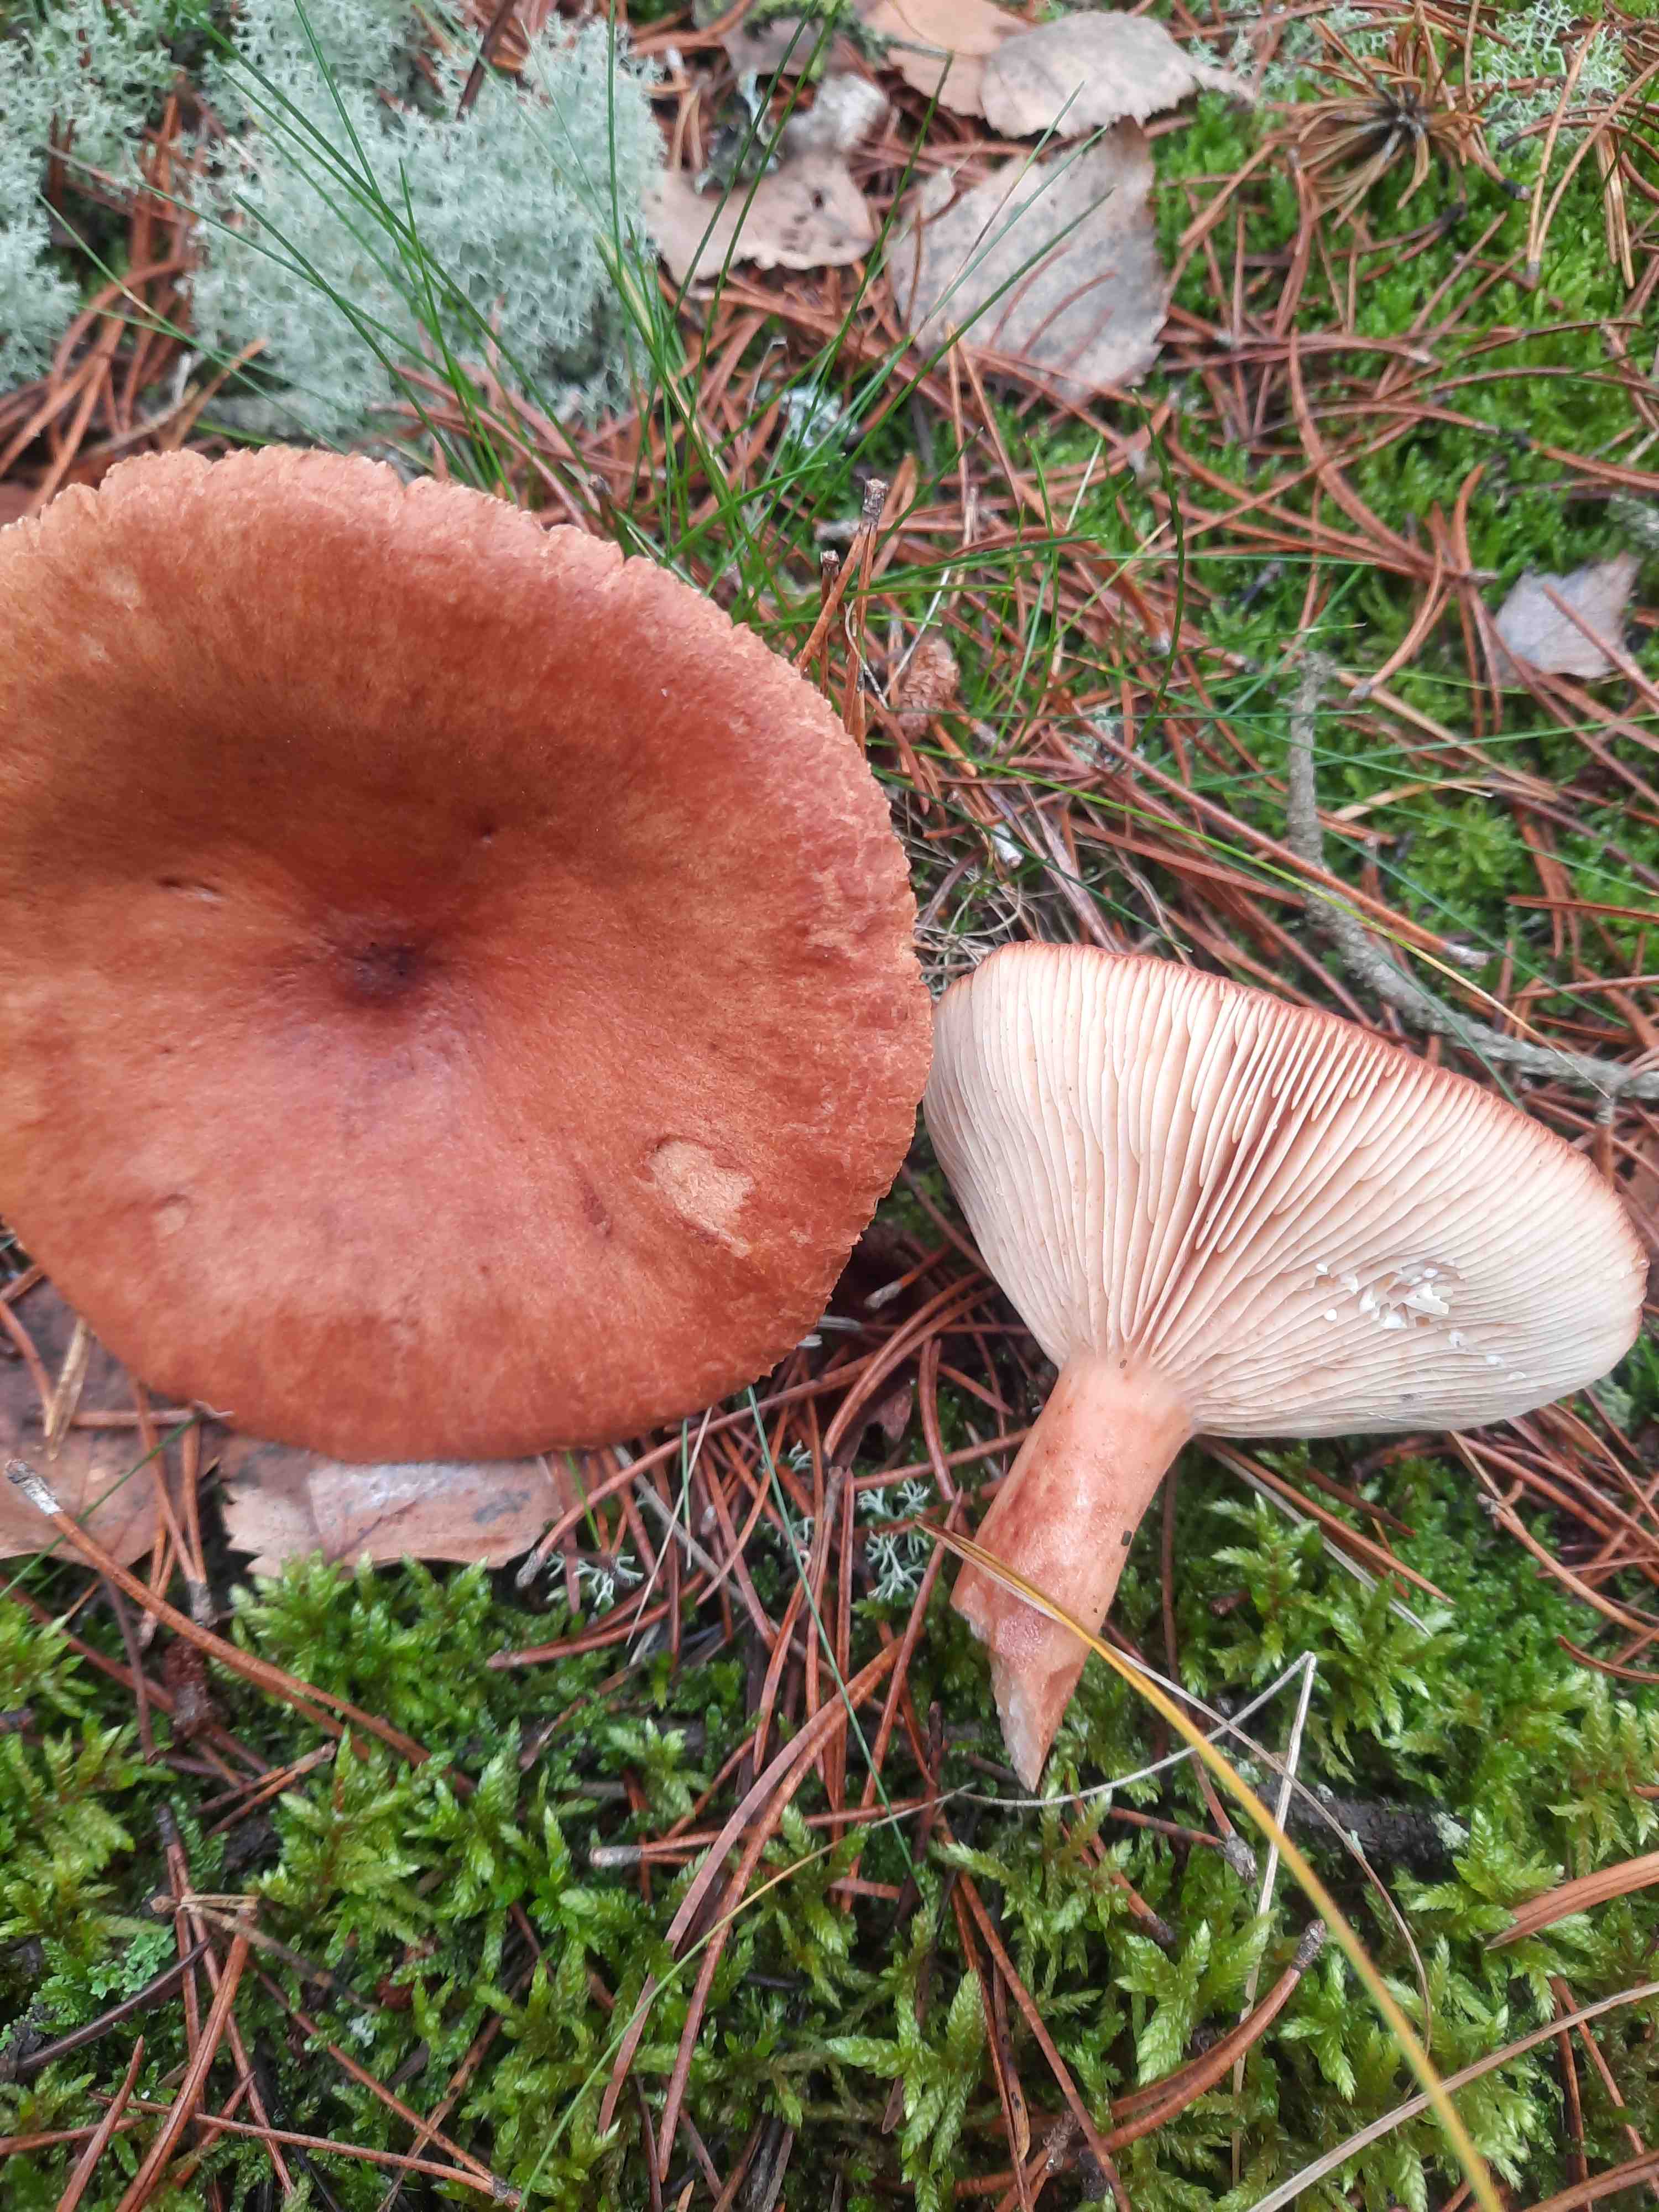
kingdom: Fungi
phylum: Basidiomycota
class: Agaricomycetes
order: Russulales
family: Russulaceae
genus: Lactarius
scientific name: Lactarius rufus
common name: rødbrun mælkehat
